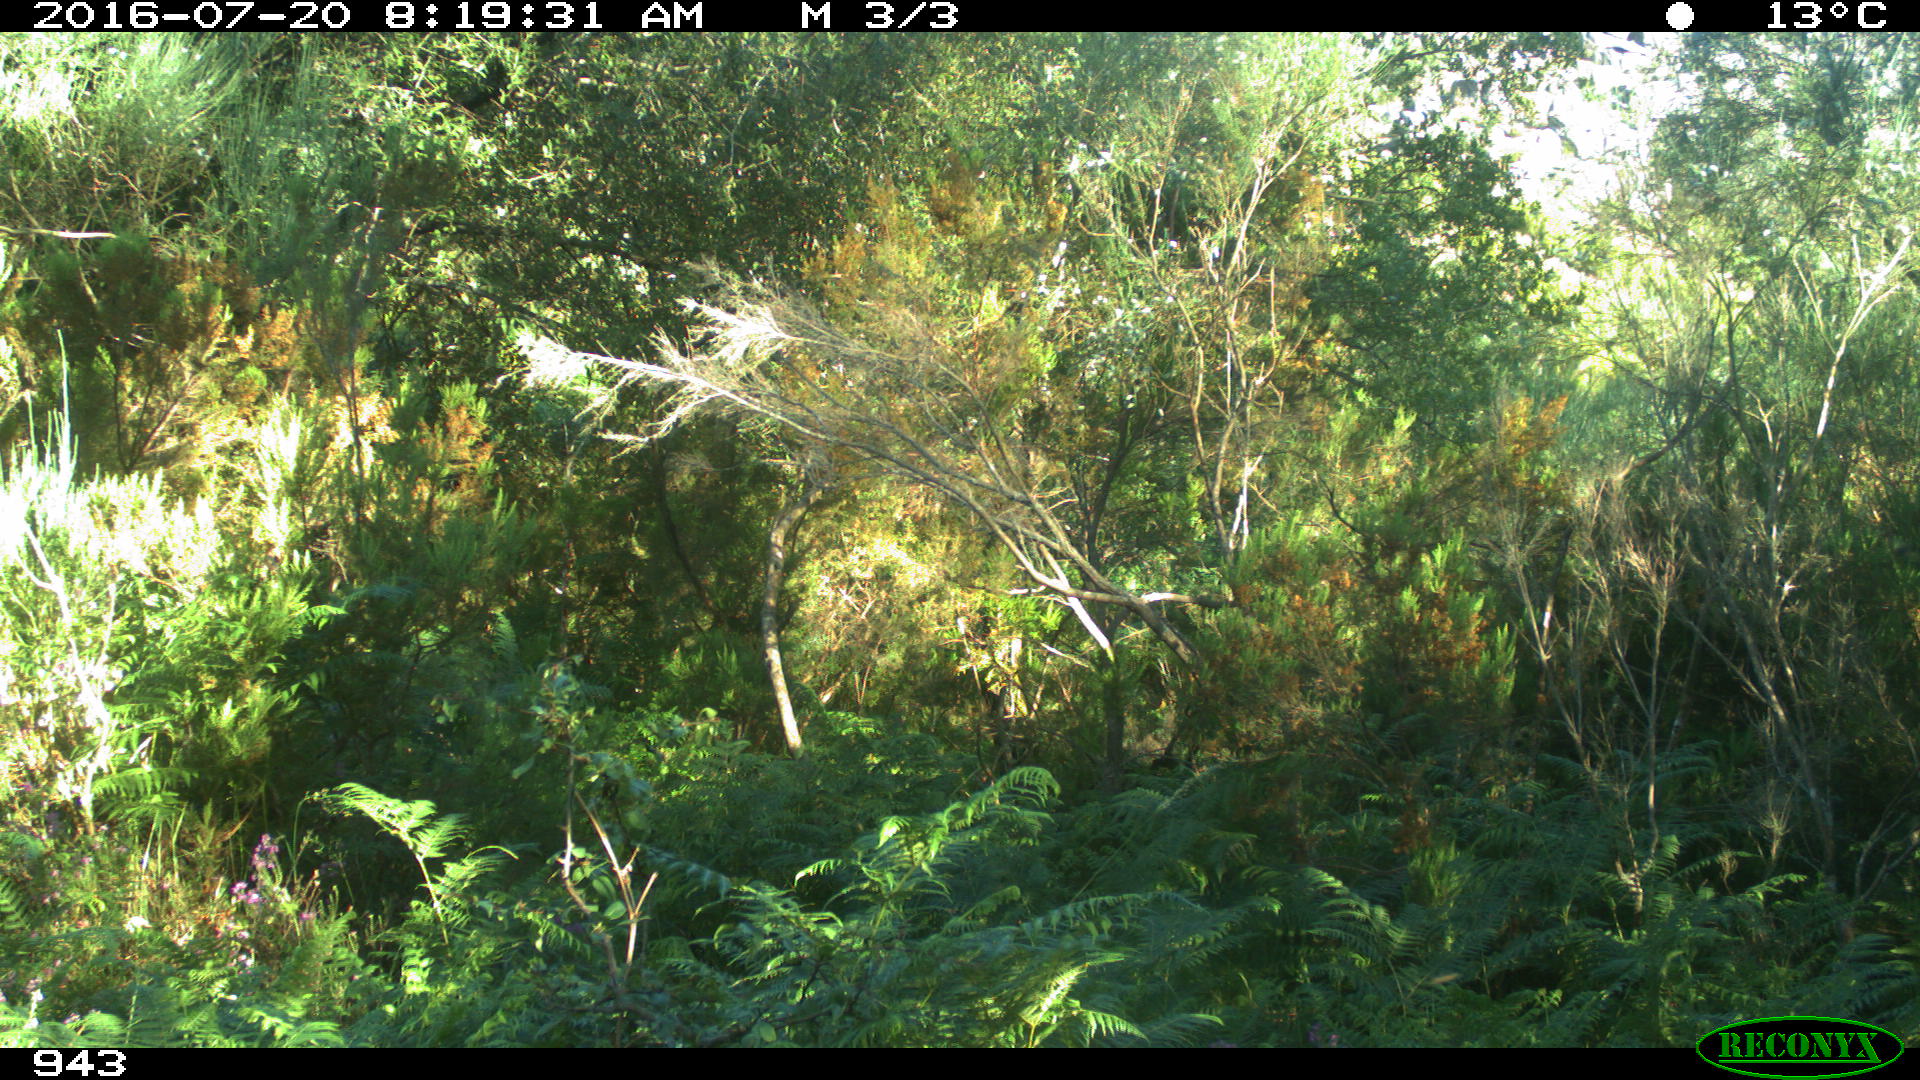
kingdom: Animalia
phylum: Chordata
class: Mammalia
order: Artiodactyla
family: Bovidae
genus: Bos
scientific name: Bos taurus
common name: Domesticated cattle
